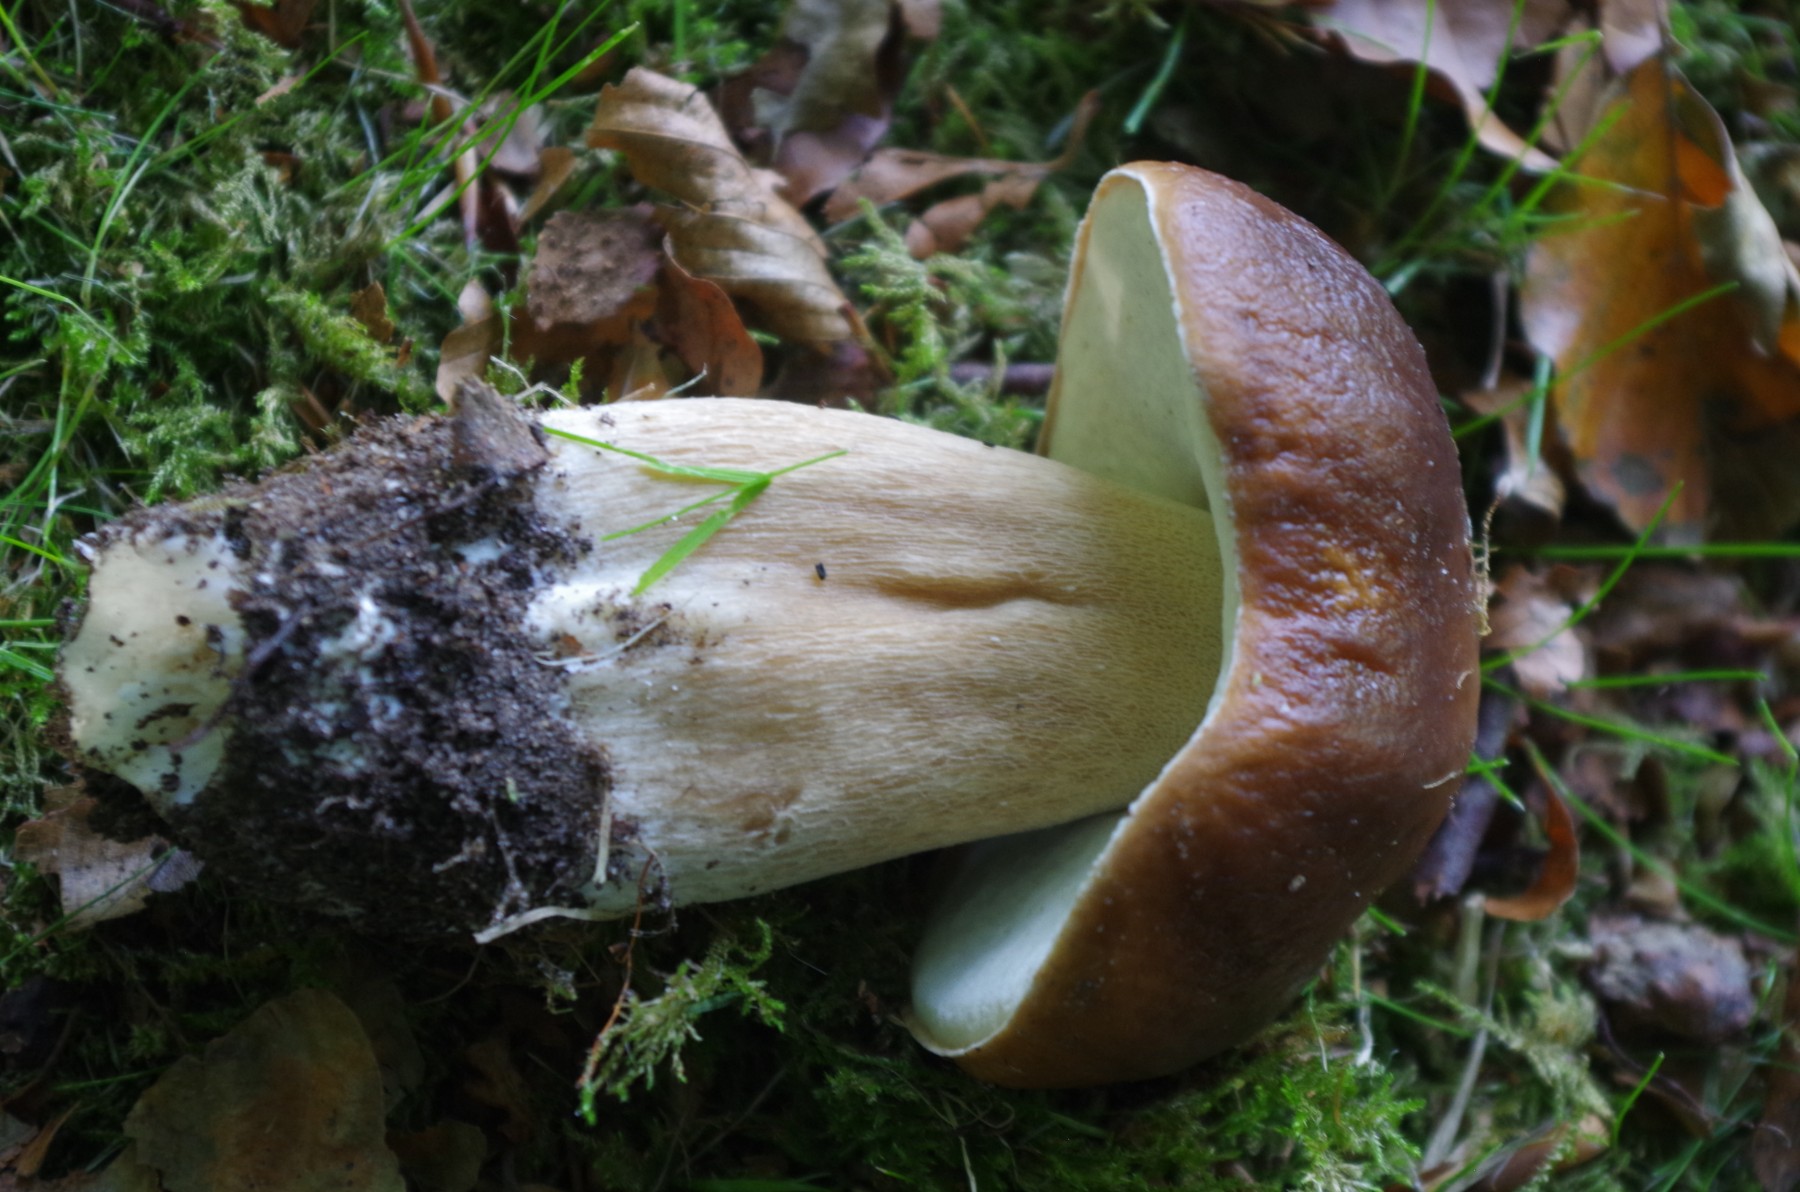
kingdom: Fungi
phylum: Basidiomycota
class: Agaricomycetes
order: Boletales
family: Boletaceae
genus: Boletus
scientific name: Boletus edulis
